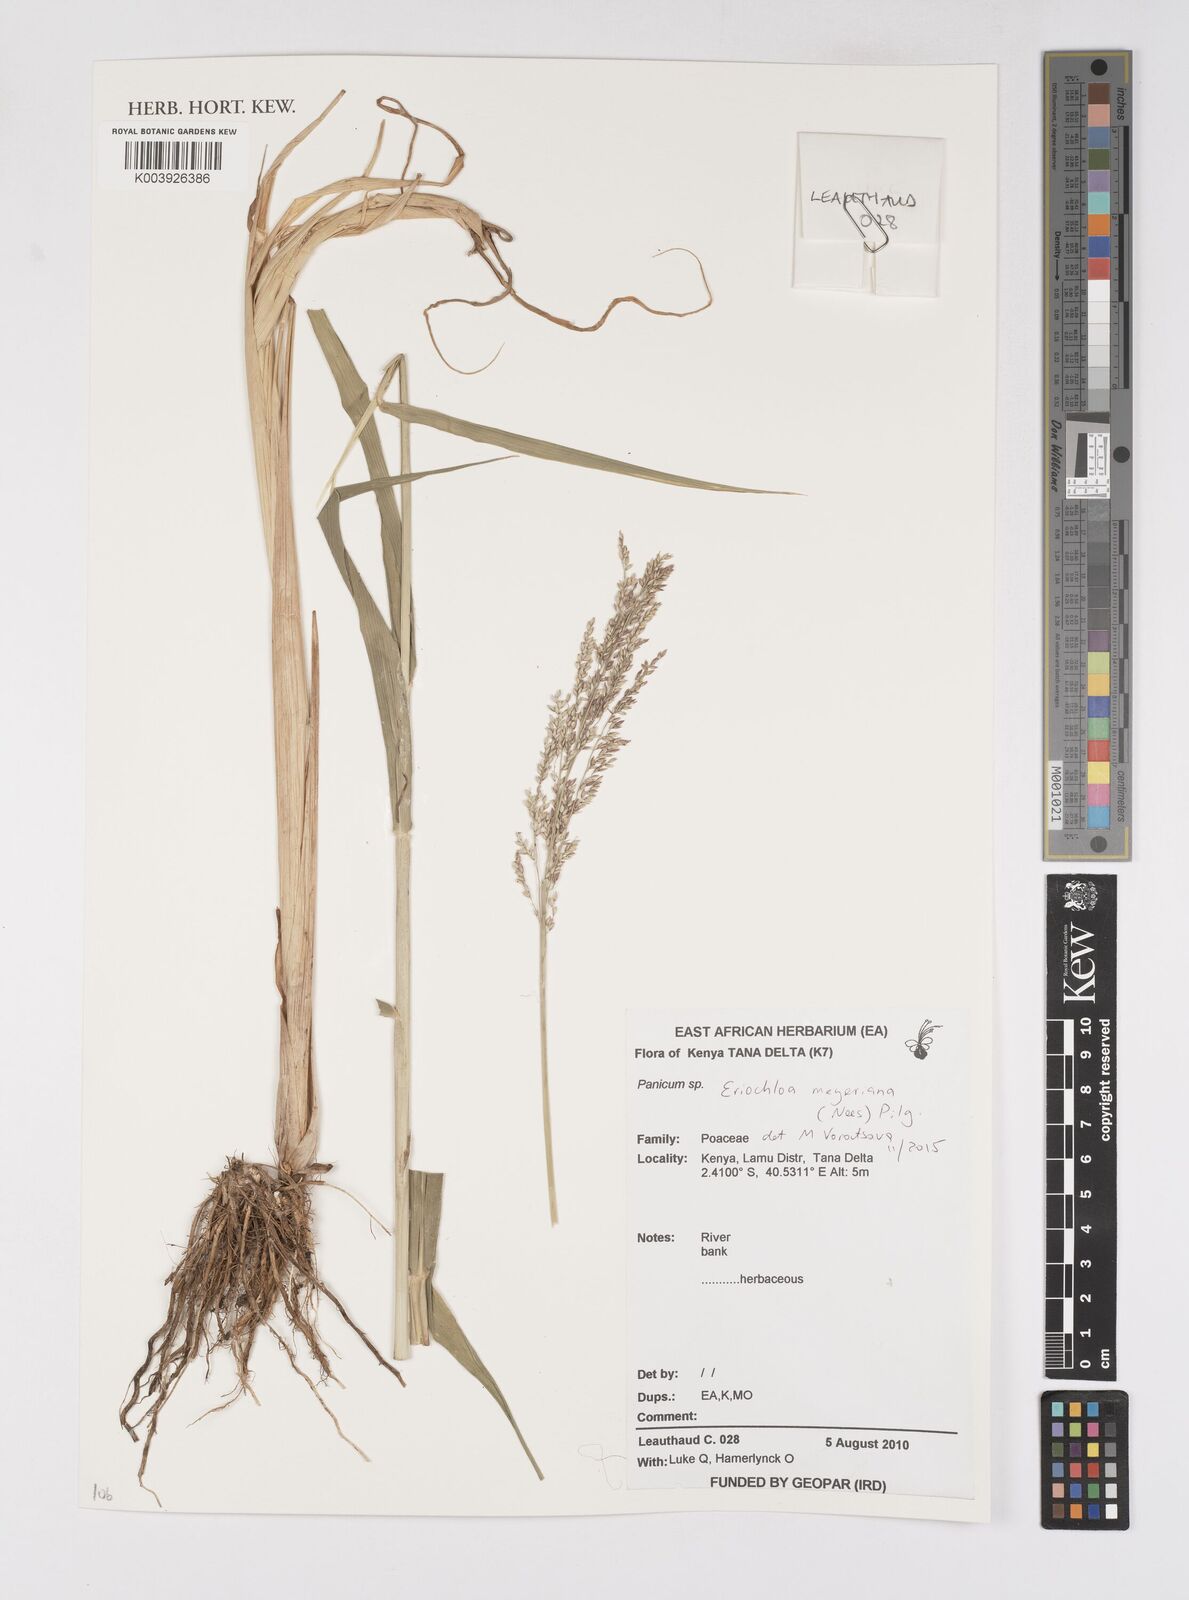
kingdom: Plantae
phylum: Tracheophyta
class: Liliopsida
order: Poales
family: Poaceae
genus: Eriochloa
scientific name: Eriochloa meyeriana
